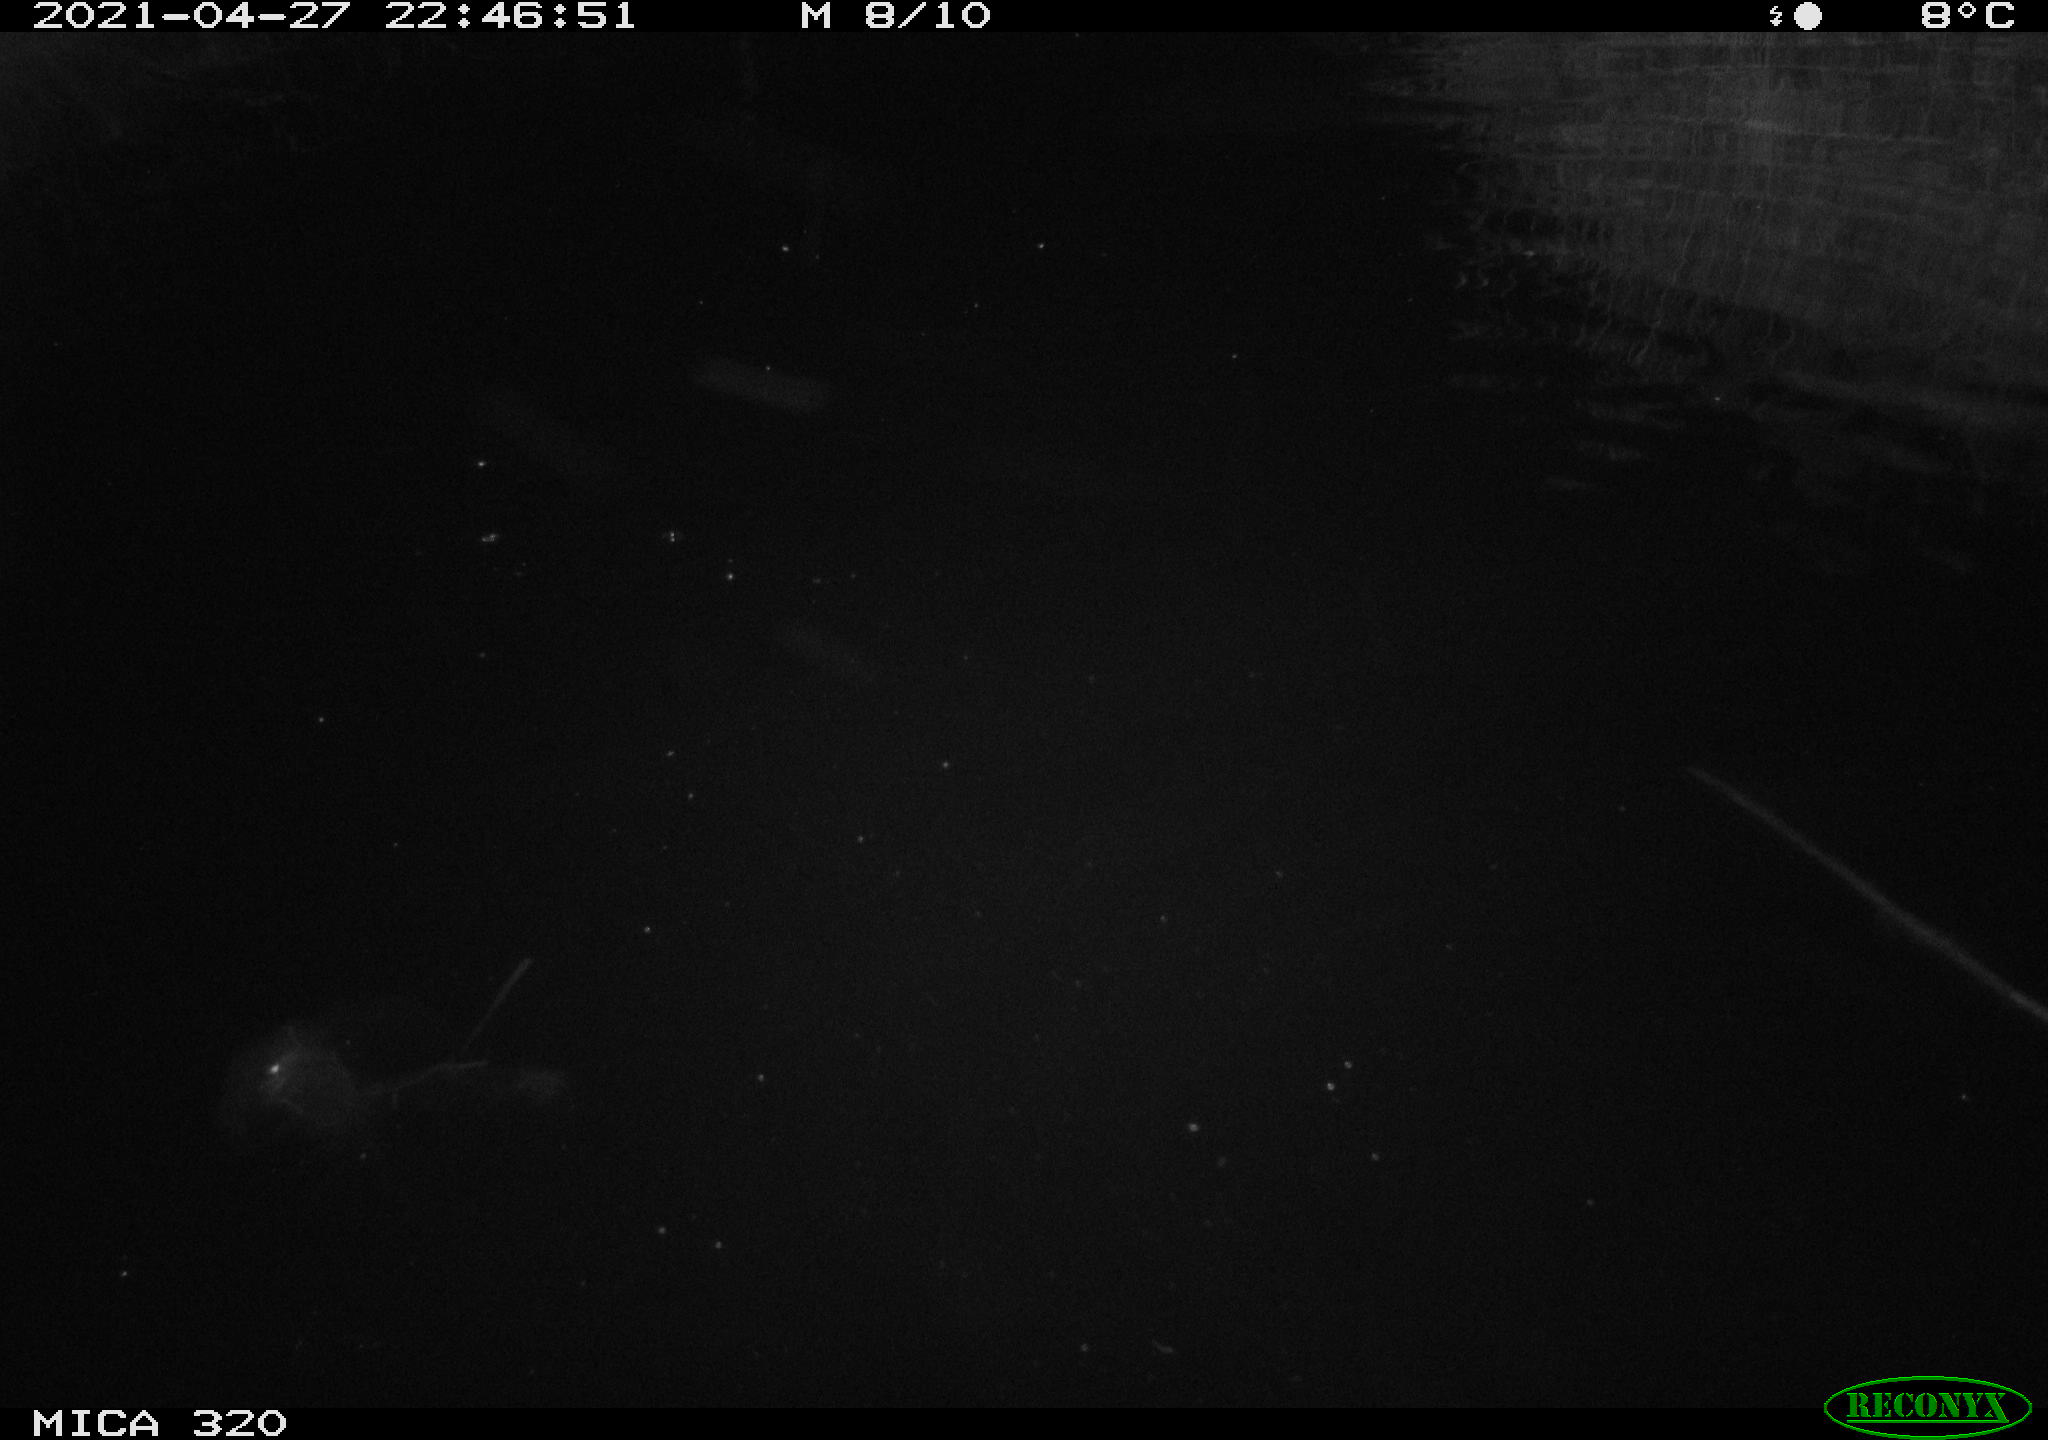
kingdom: Animalia
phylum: Chordata
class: Mammalia
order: Rodentia
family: Cricetidae
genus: Ondatra
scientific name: Ondatra zibethicus
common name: Muskrat
